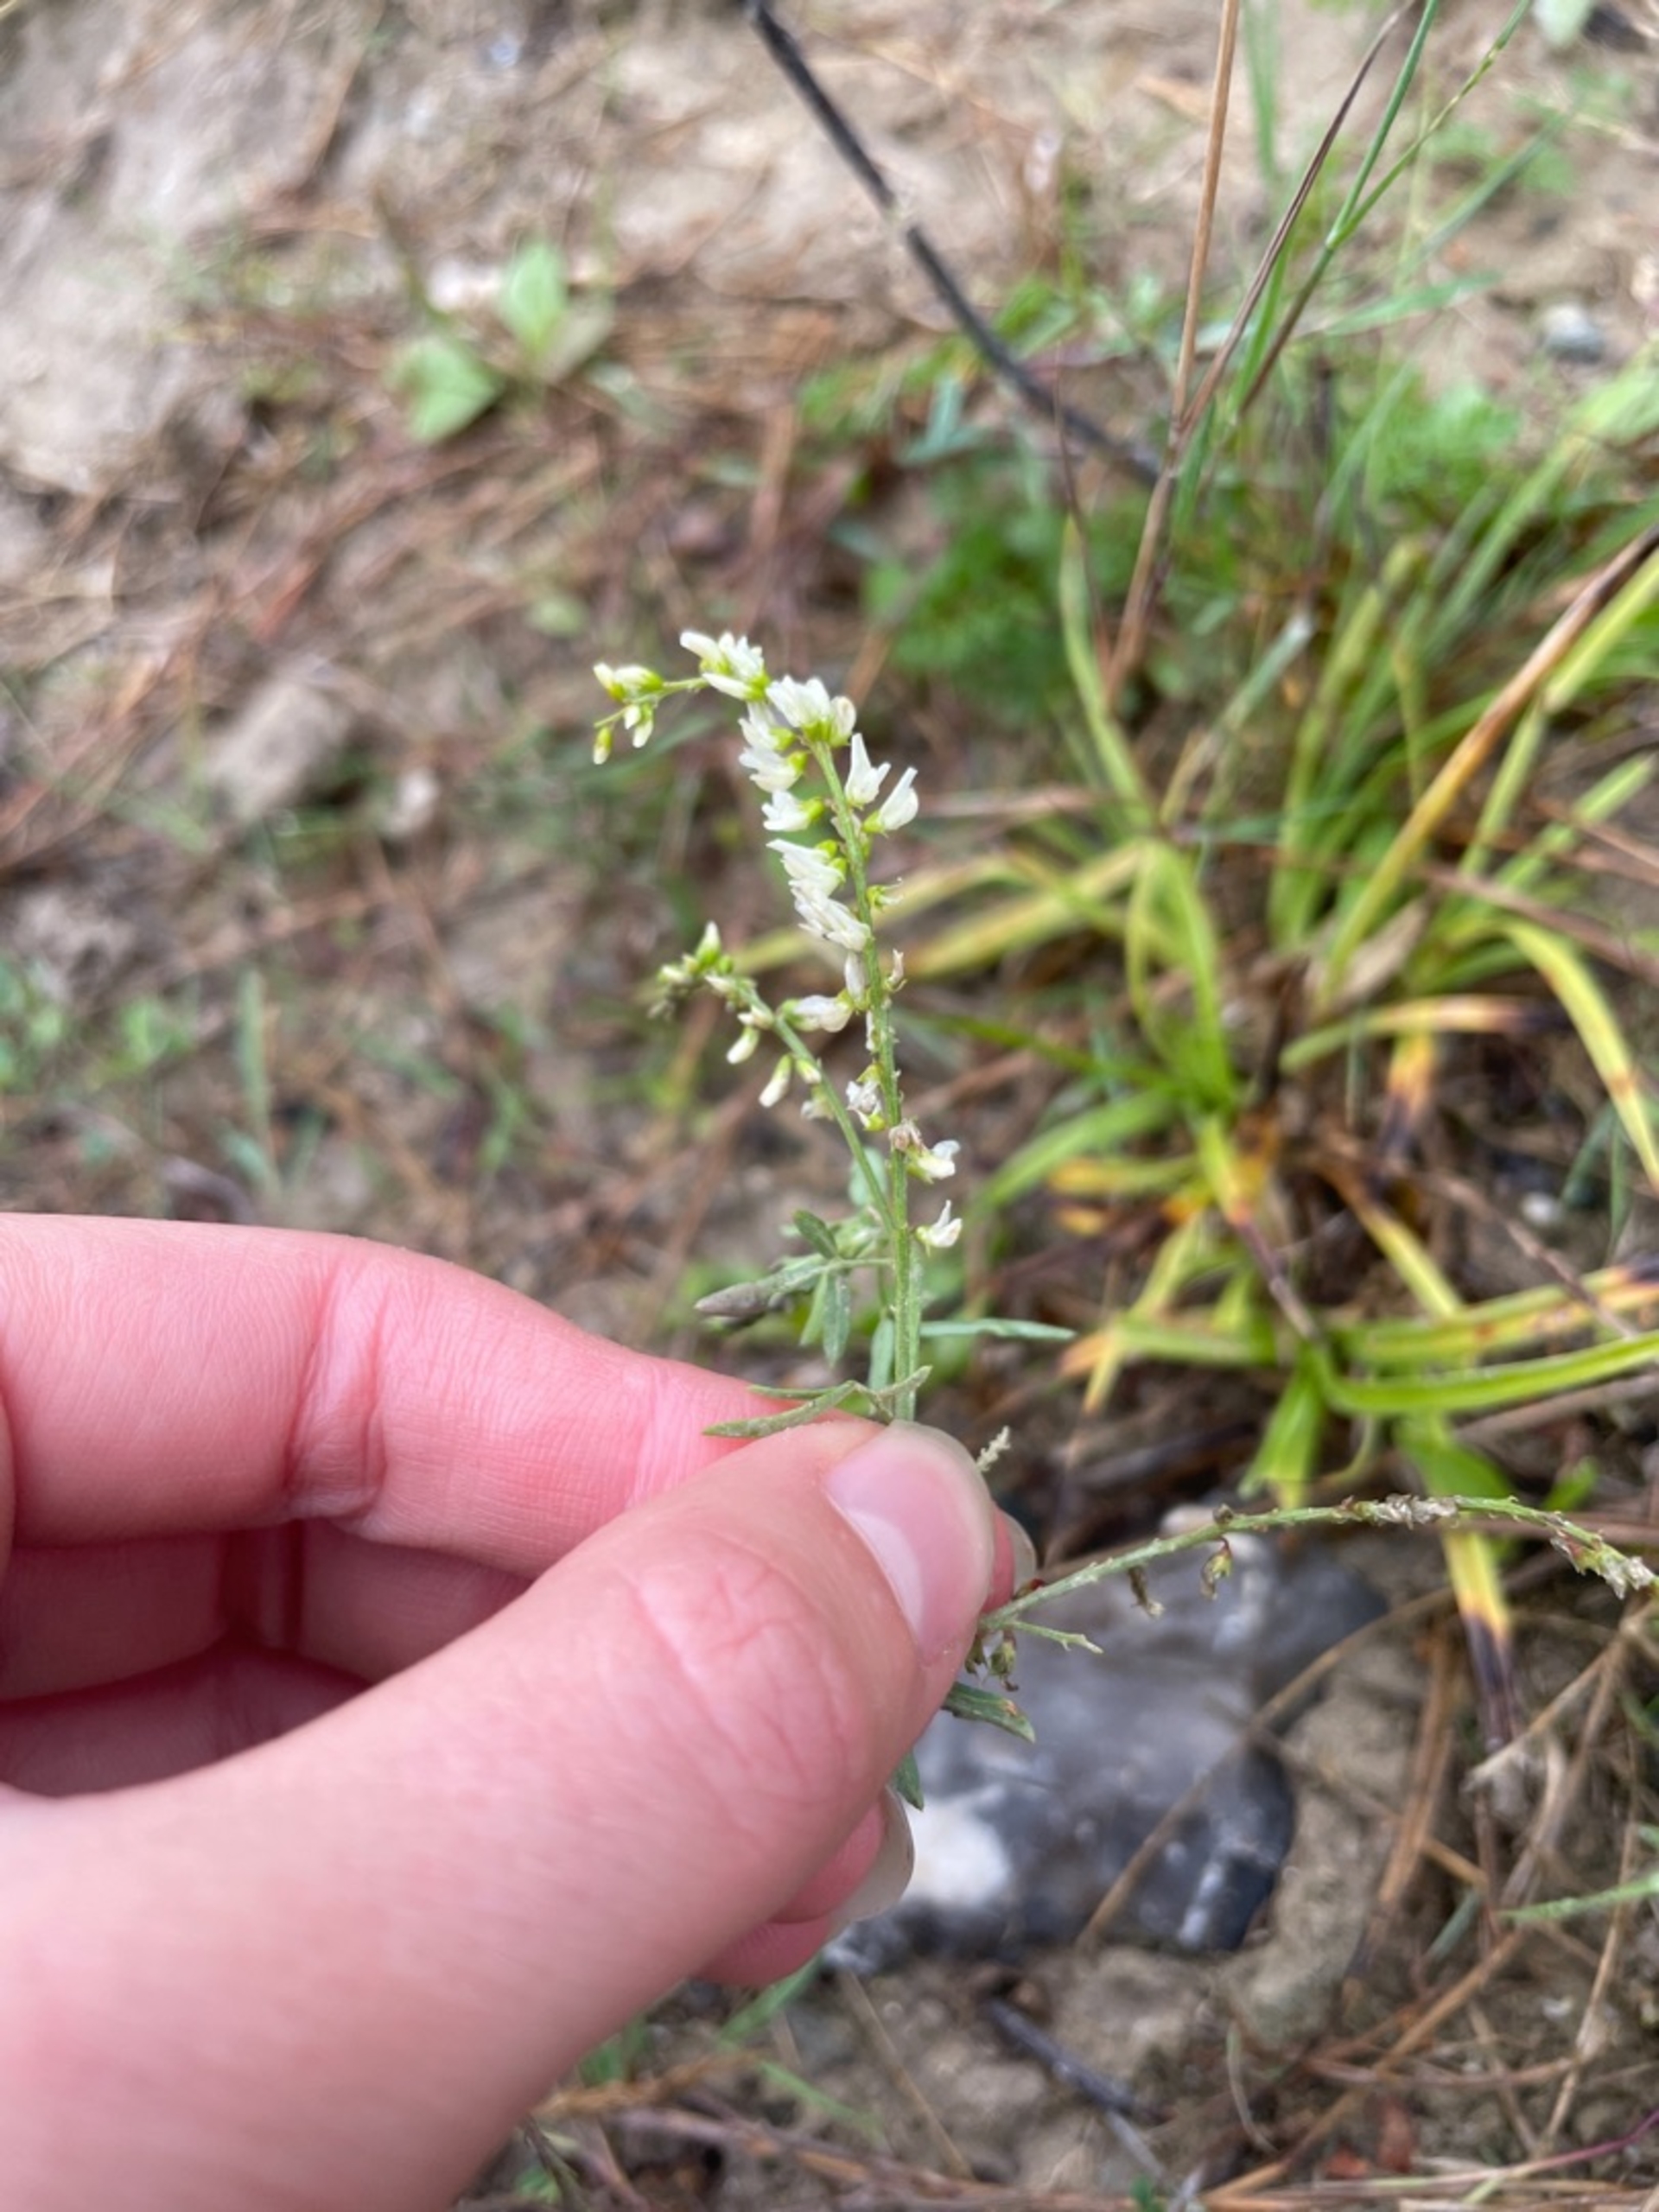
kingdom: Plantae
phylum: Tracheophyta
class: Magnoliopsida
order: Fabales
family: Fabaceae
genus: Melilotus
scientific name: Melilotus albus
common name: Hvid stenkløver
